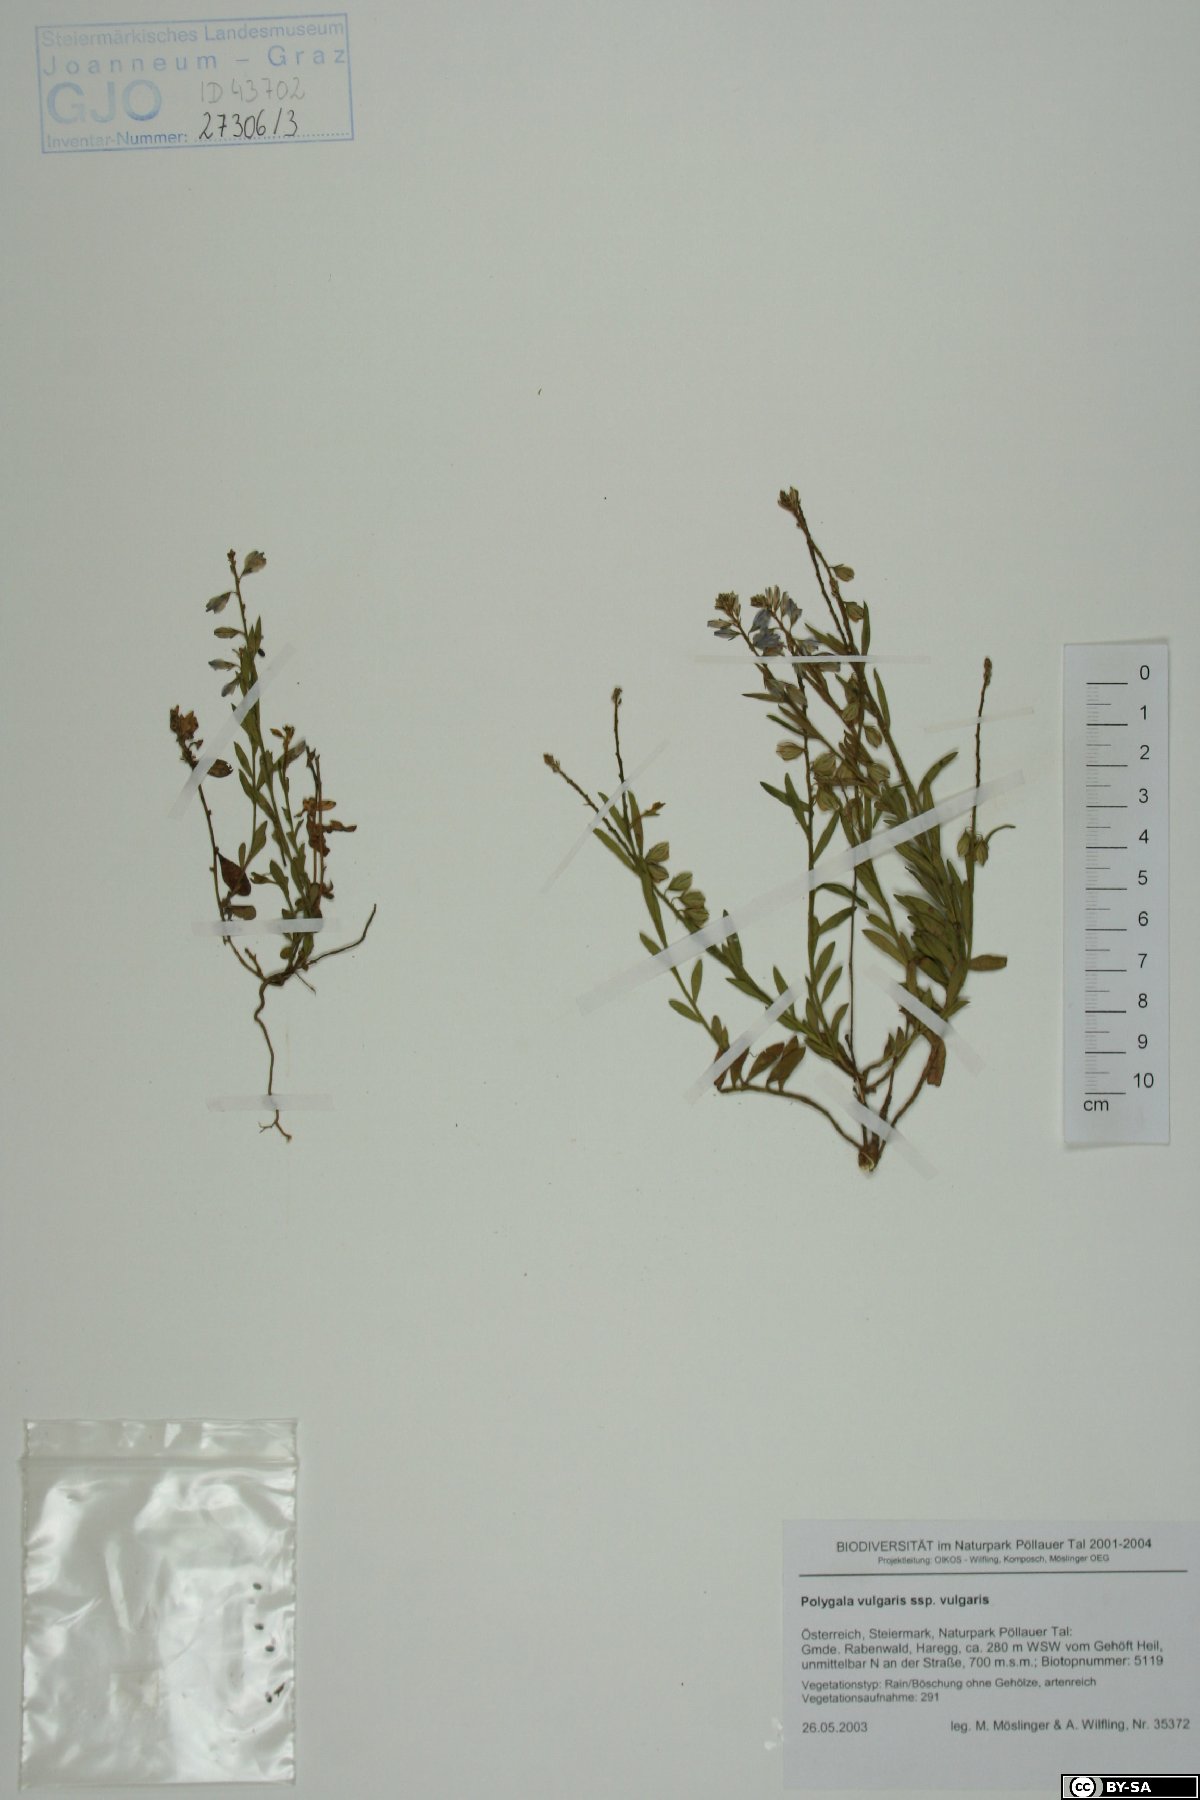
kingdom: Plantae
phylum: Tracheophyta
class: Magnoliopsida
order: Fabales
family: Polygalaceae
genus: Polygala
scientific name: Polygala vulgaris
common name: Common milkwort
